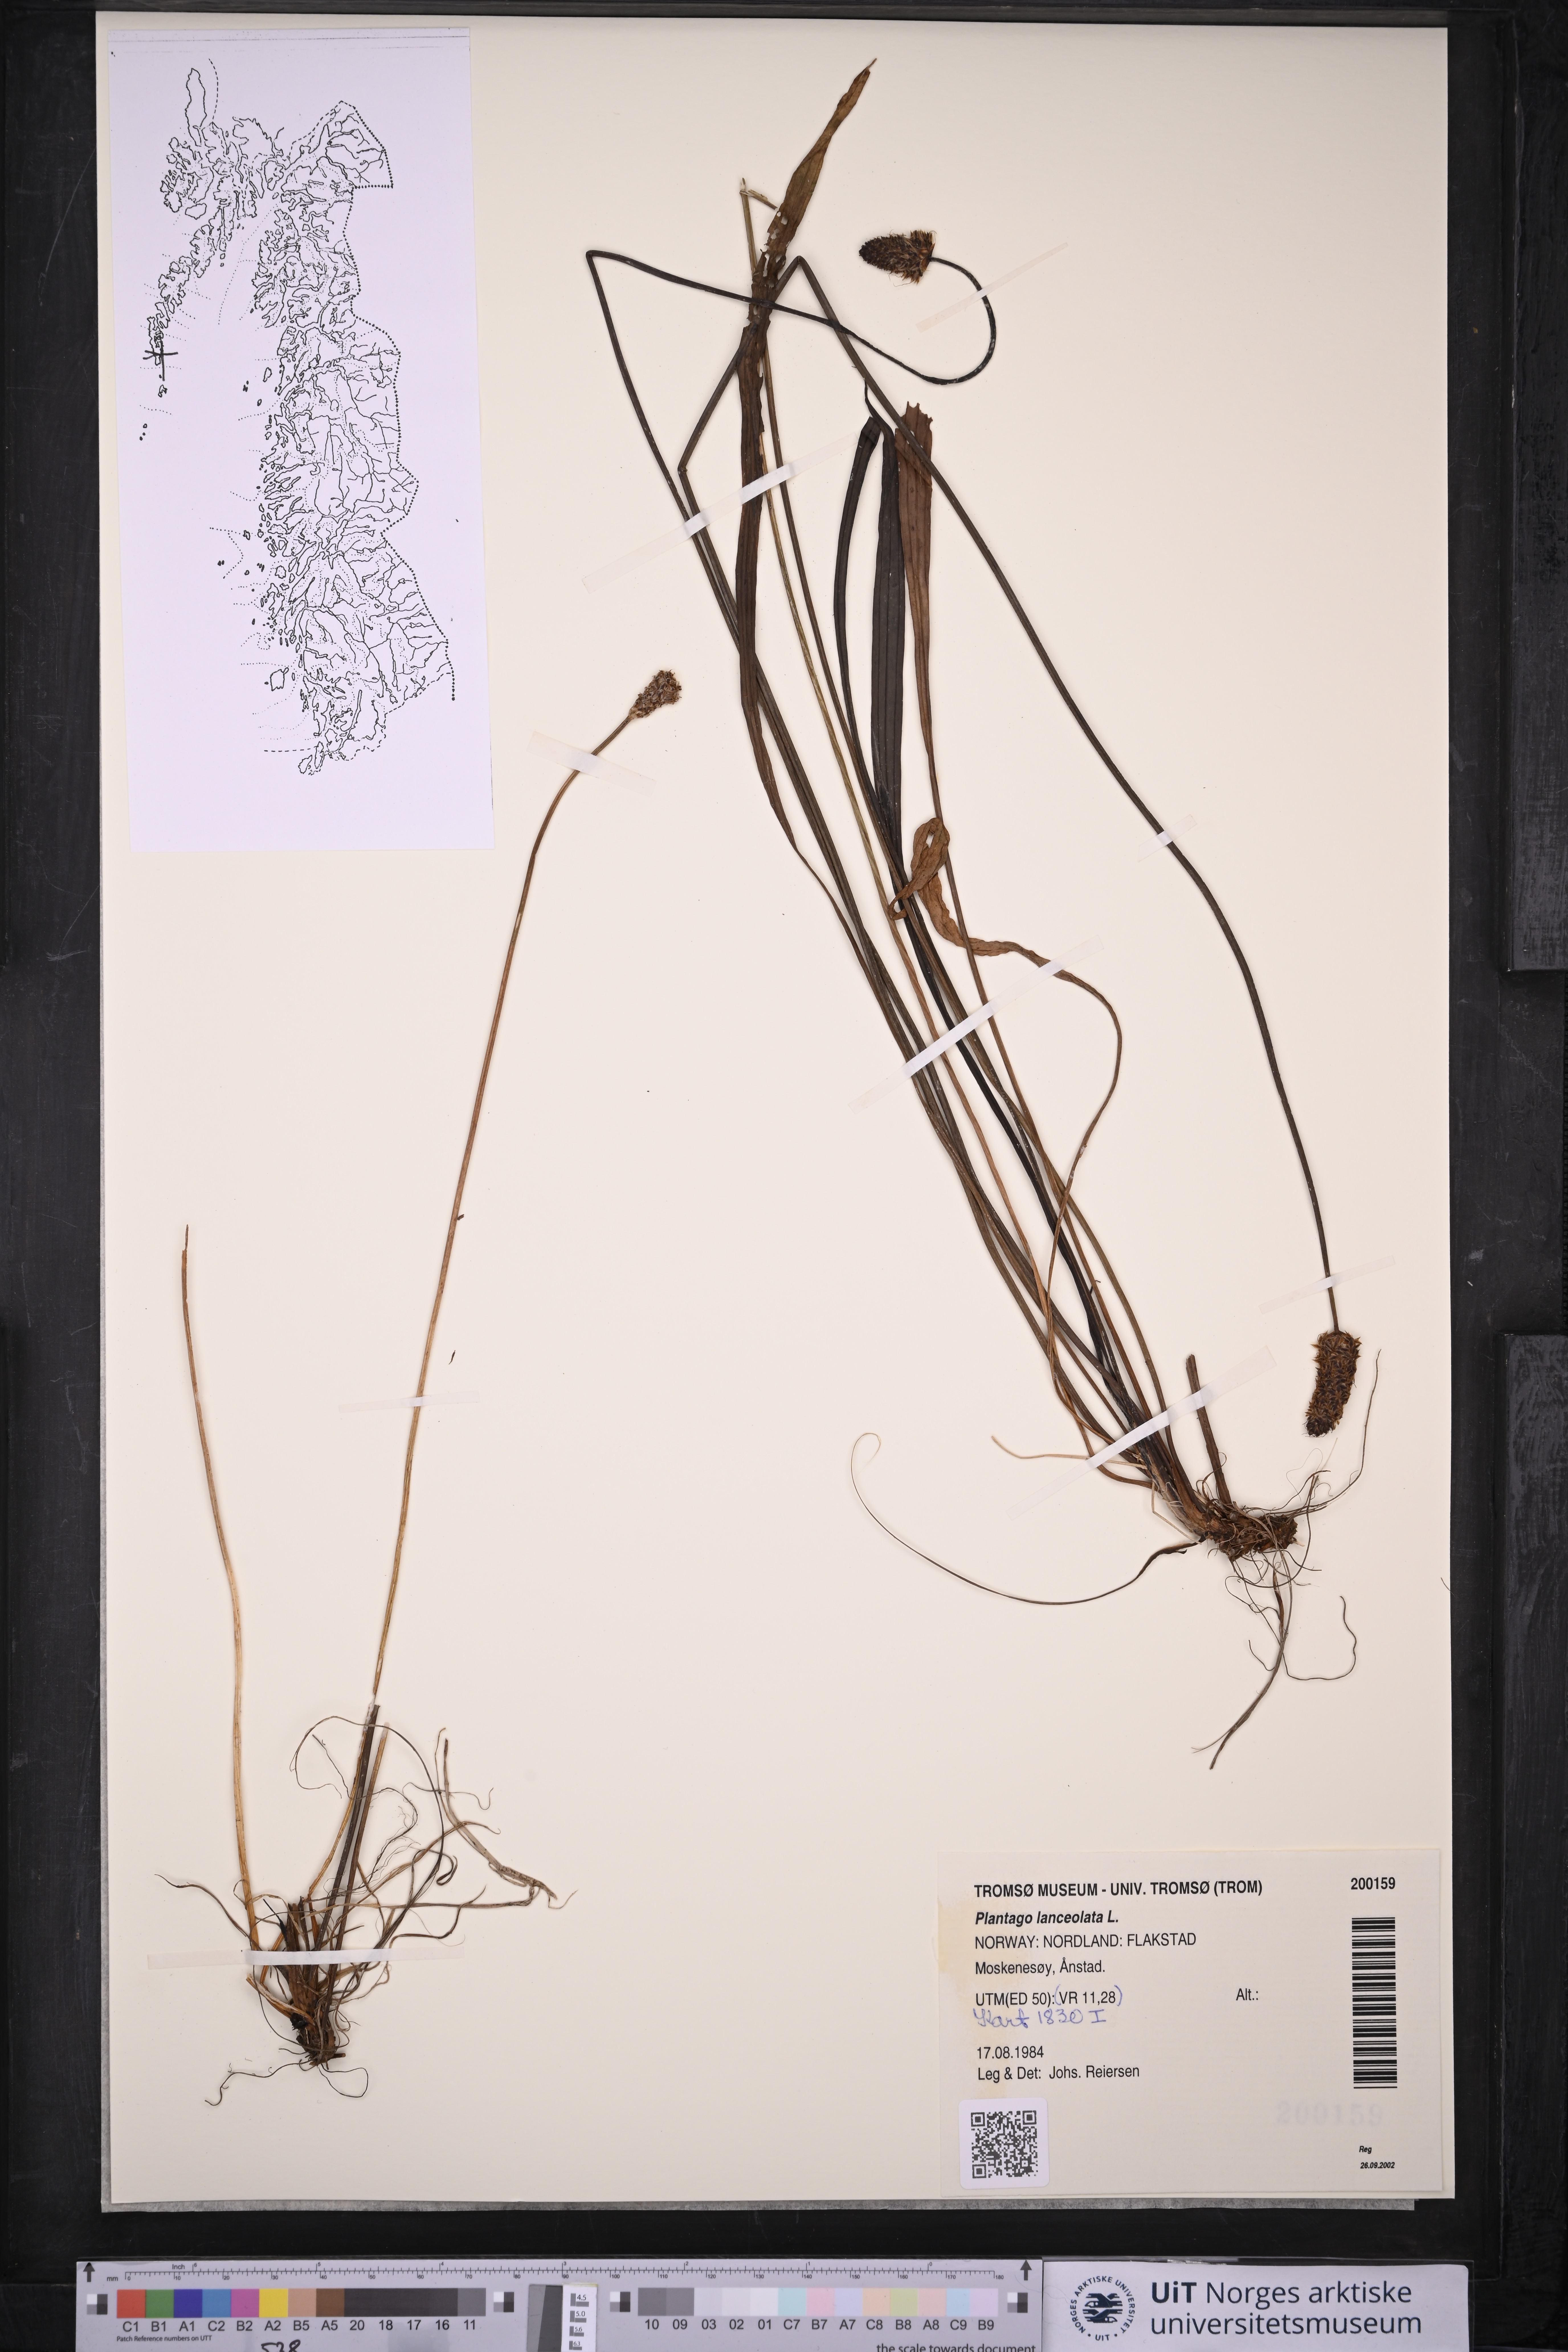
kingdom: Plantae
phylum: Tracheophyta
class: Magnoliopsida
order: Lamiales
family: Plantaginaceae
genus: Plantago
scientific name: Plantago lanceolata
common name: Ribwort plantain
